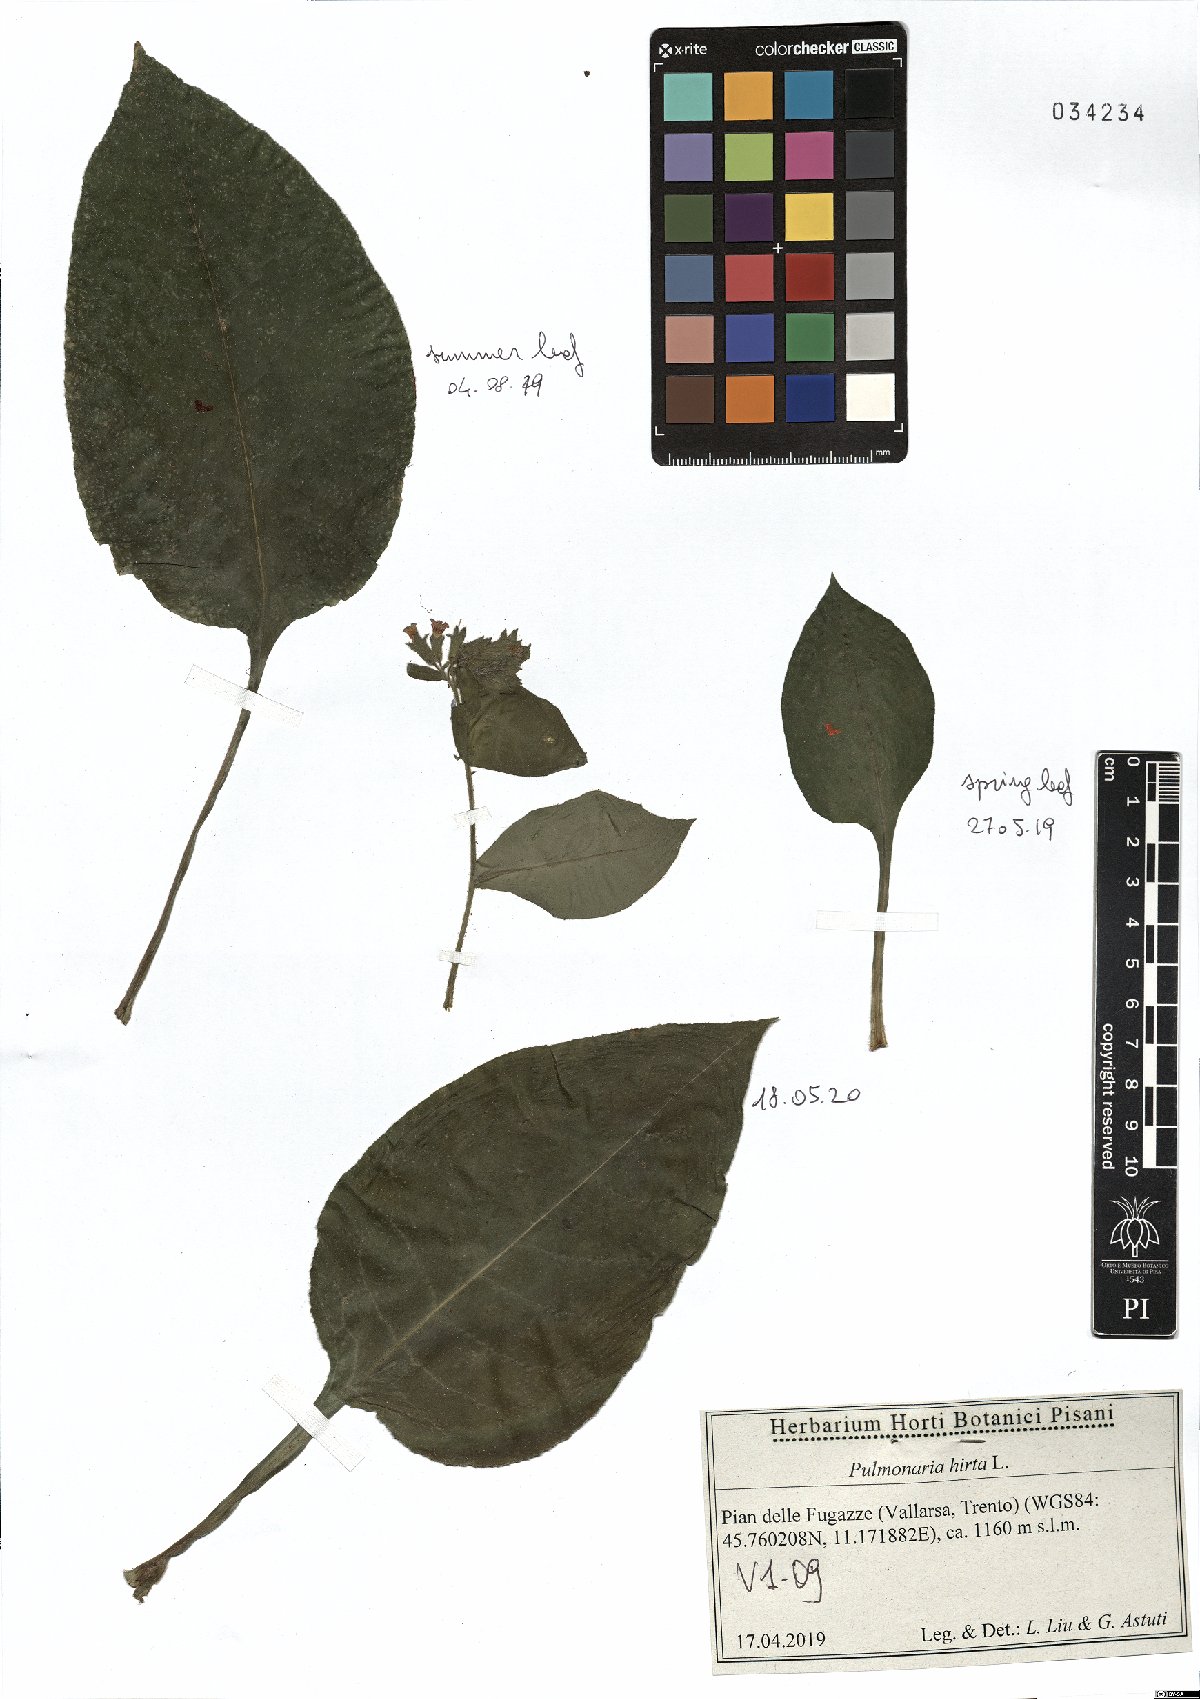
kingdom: Plantae
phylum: Tracheophyta
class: Magnoliopsida
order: Boraginales
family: Boraginaceae
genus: Pulmonaria
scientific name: Pulmonaria hirta
